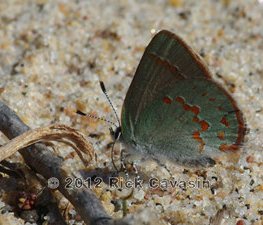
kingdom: Animalia
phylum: Arthropoda
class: Insecta
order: Lepidoptera
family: Lycaenidae
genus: Erora
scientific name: Erora laeta
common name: Early Hairstreak
